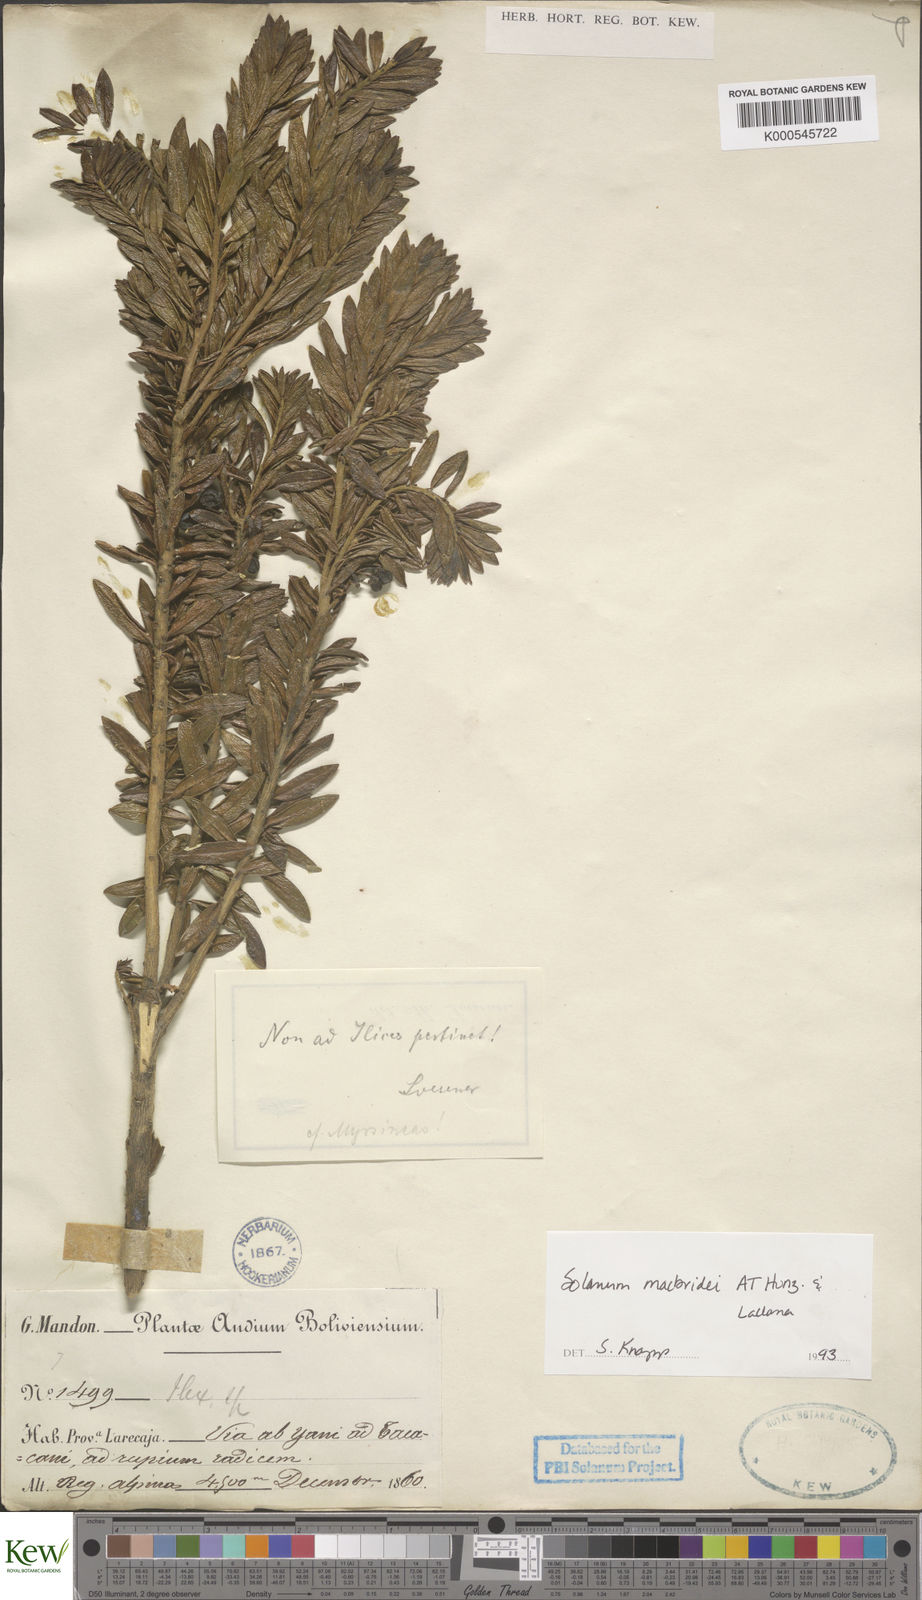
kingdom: Plantae
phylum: Tracheophyta
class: Magnoliopsida
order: Solanales
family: Solanaceae
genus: Solanum
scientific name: Solanum macbridei
